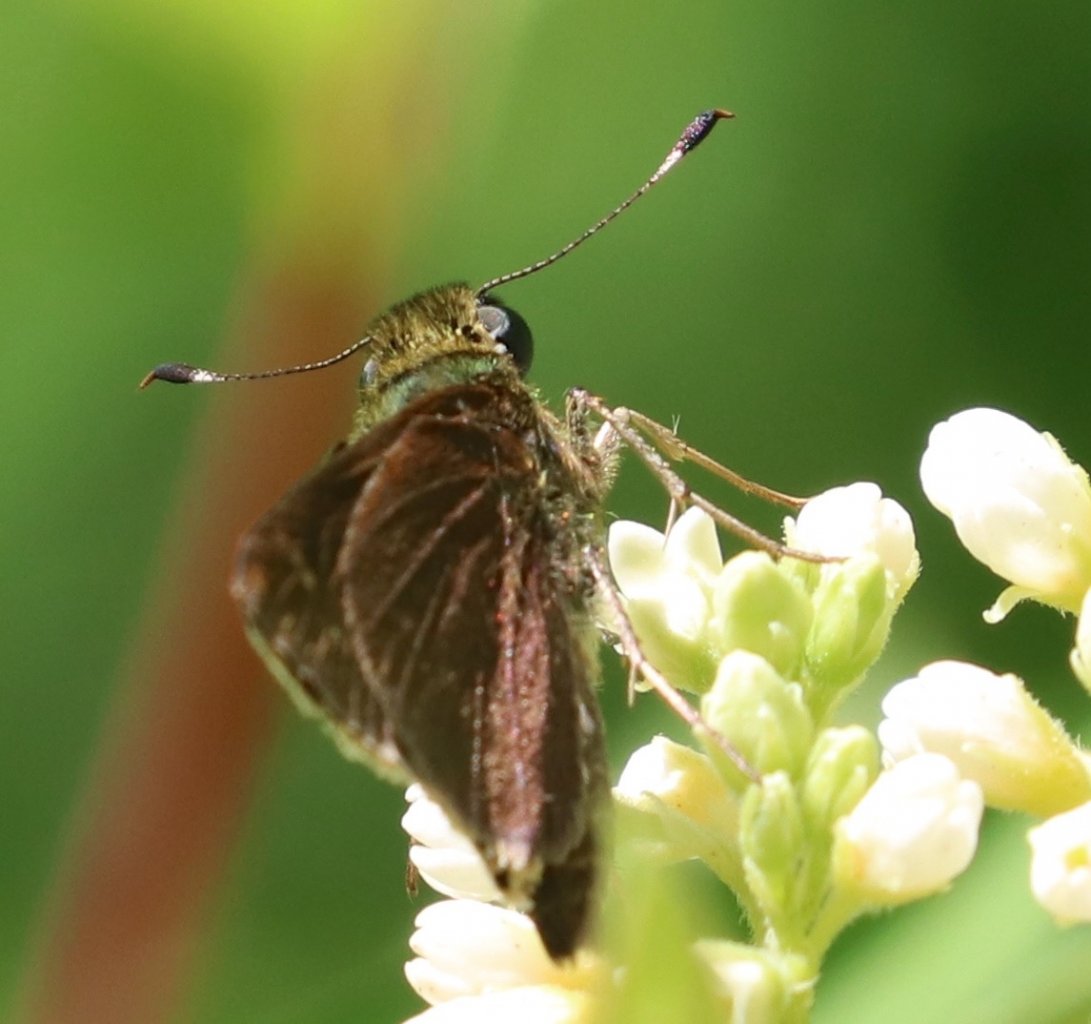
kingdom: Animalia
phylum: Arthropoda
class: Insecta
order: Lepidoptera
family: Hesperiidae
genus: Vernia
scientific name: Vernia verna
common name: Little Glassywing
